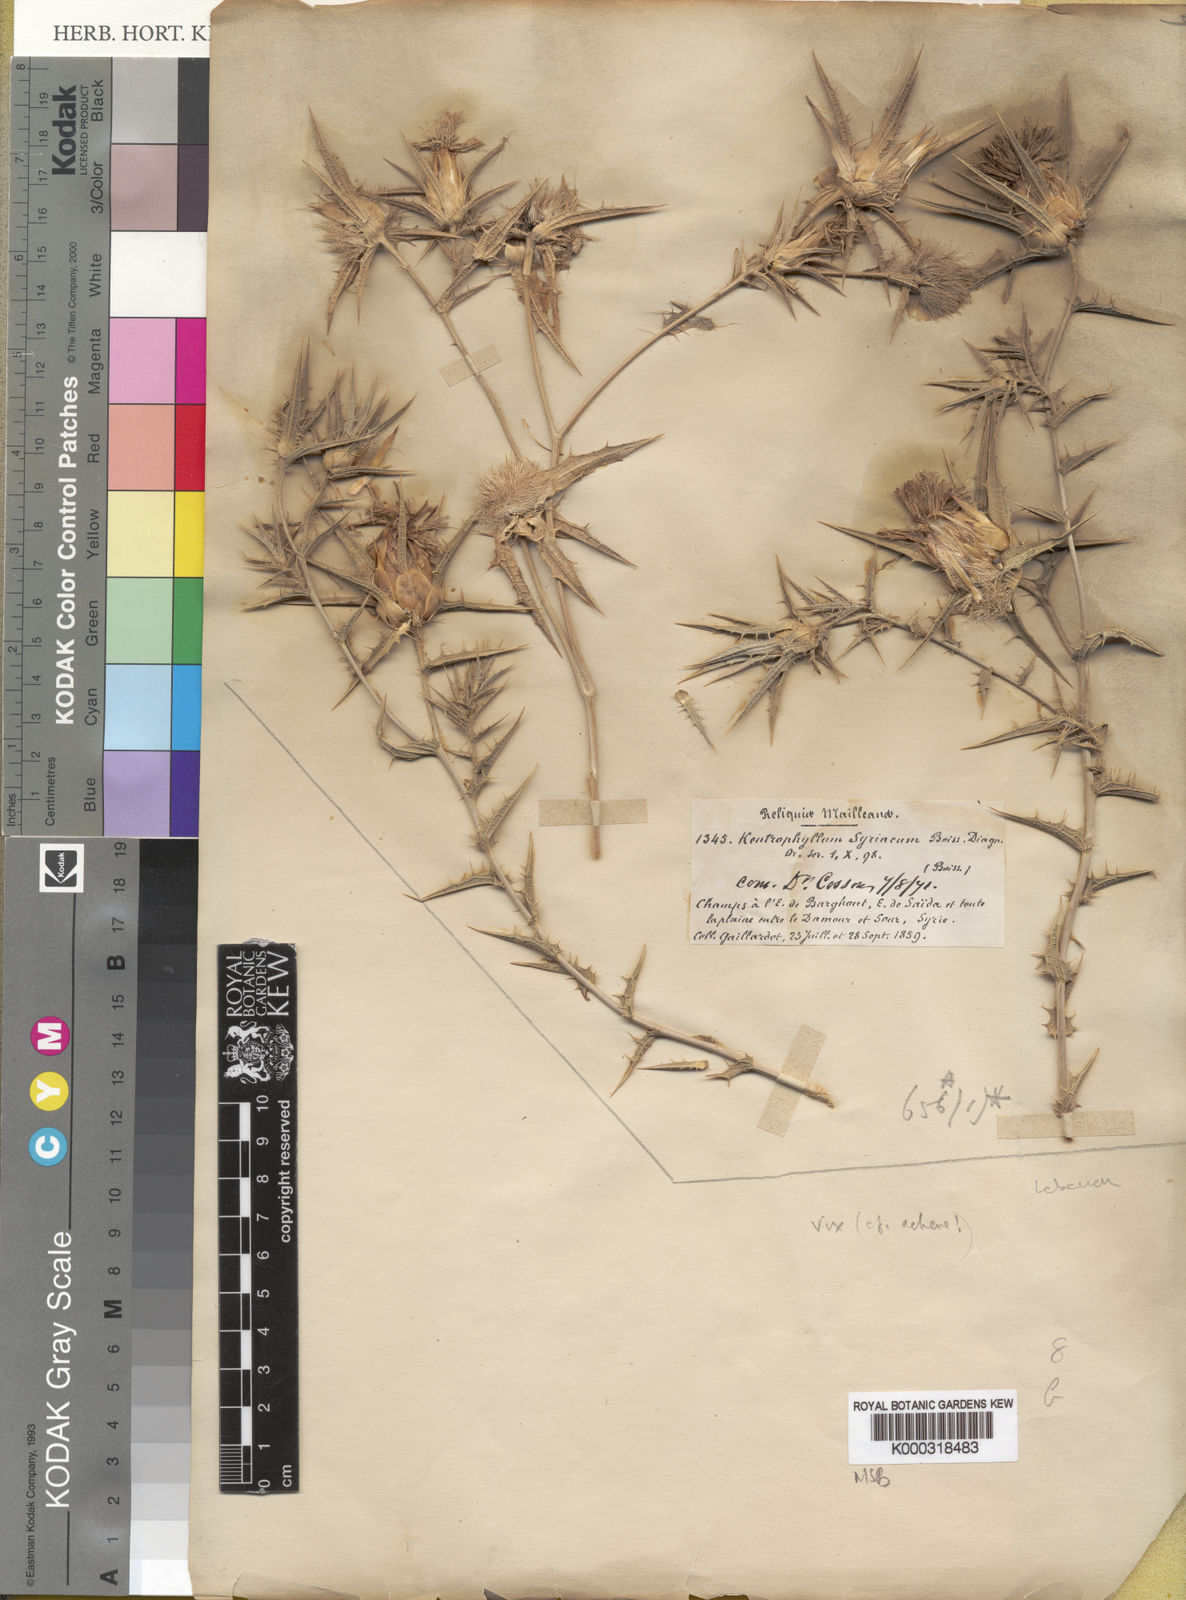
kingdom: Plantae
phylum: Tracheophyta
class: Magnoliopsida
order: Asterales
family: Asteraceae
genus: Carthamus
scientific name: Carthamus glaucus
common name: Mediterranean thistle
